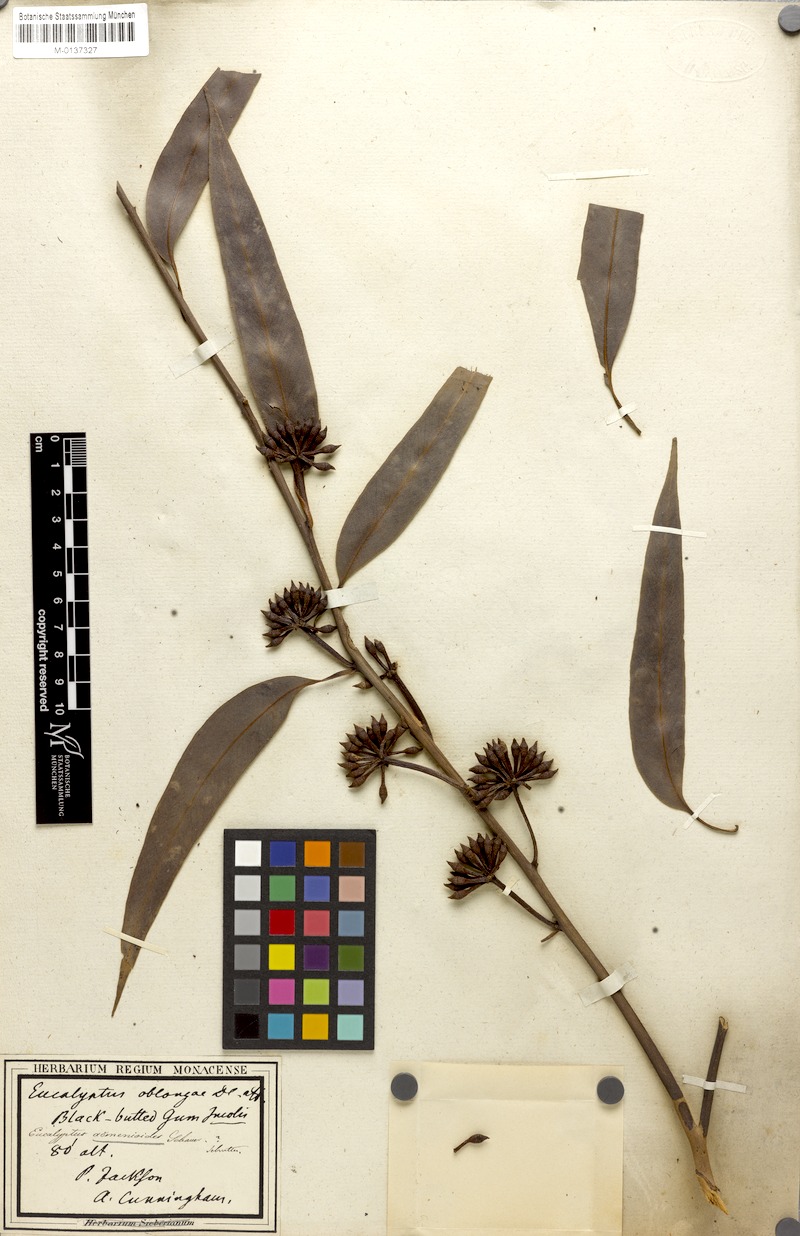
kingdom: Plantae
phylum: Tracheophyta
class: Magnoliopsida
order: Myrtales
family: Myrtaceae
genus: Eucalyptus
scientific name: Eucalyptus acmenoides
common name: White-mahogany
